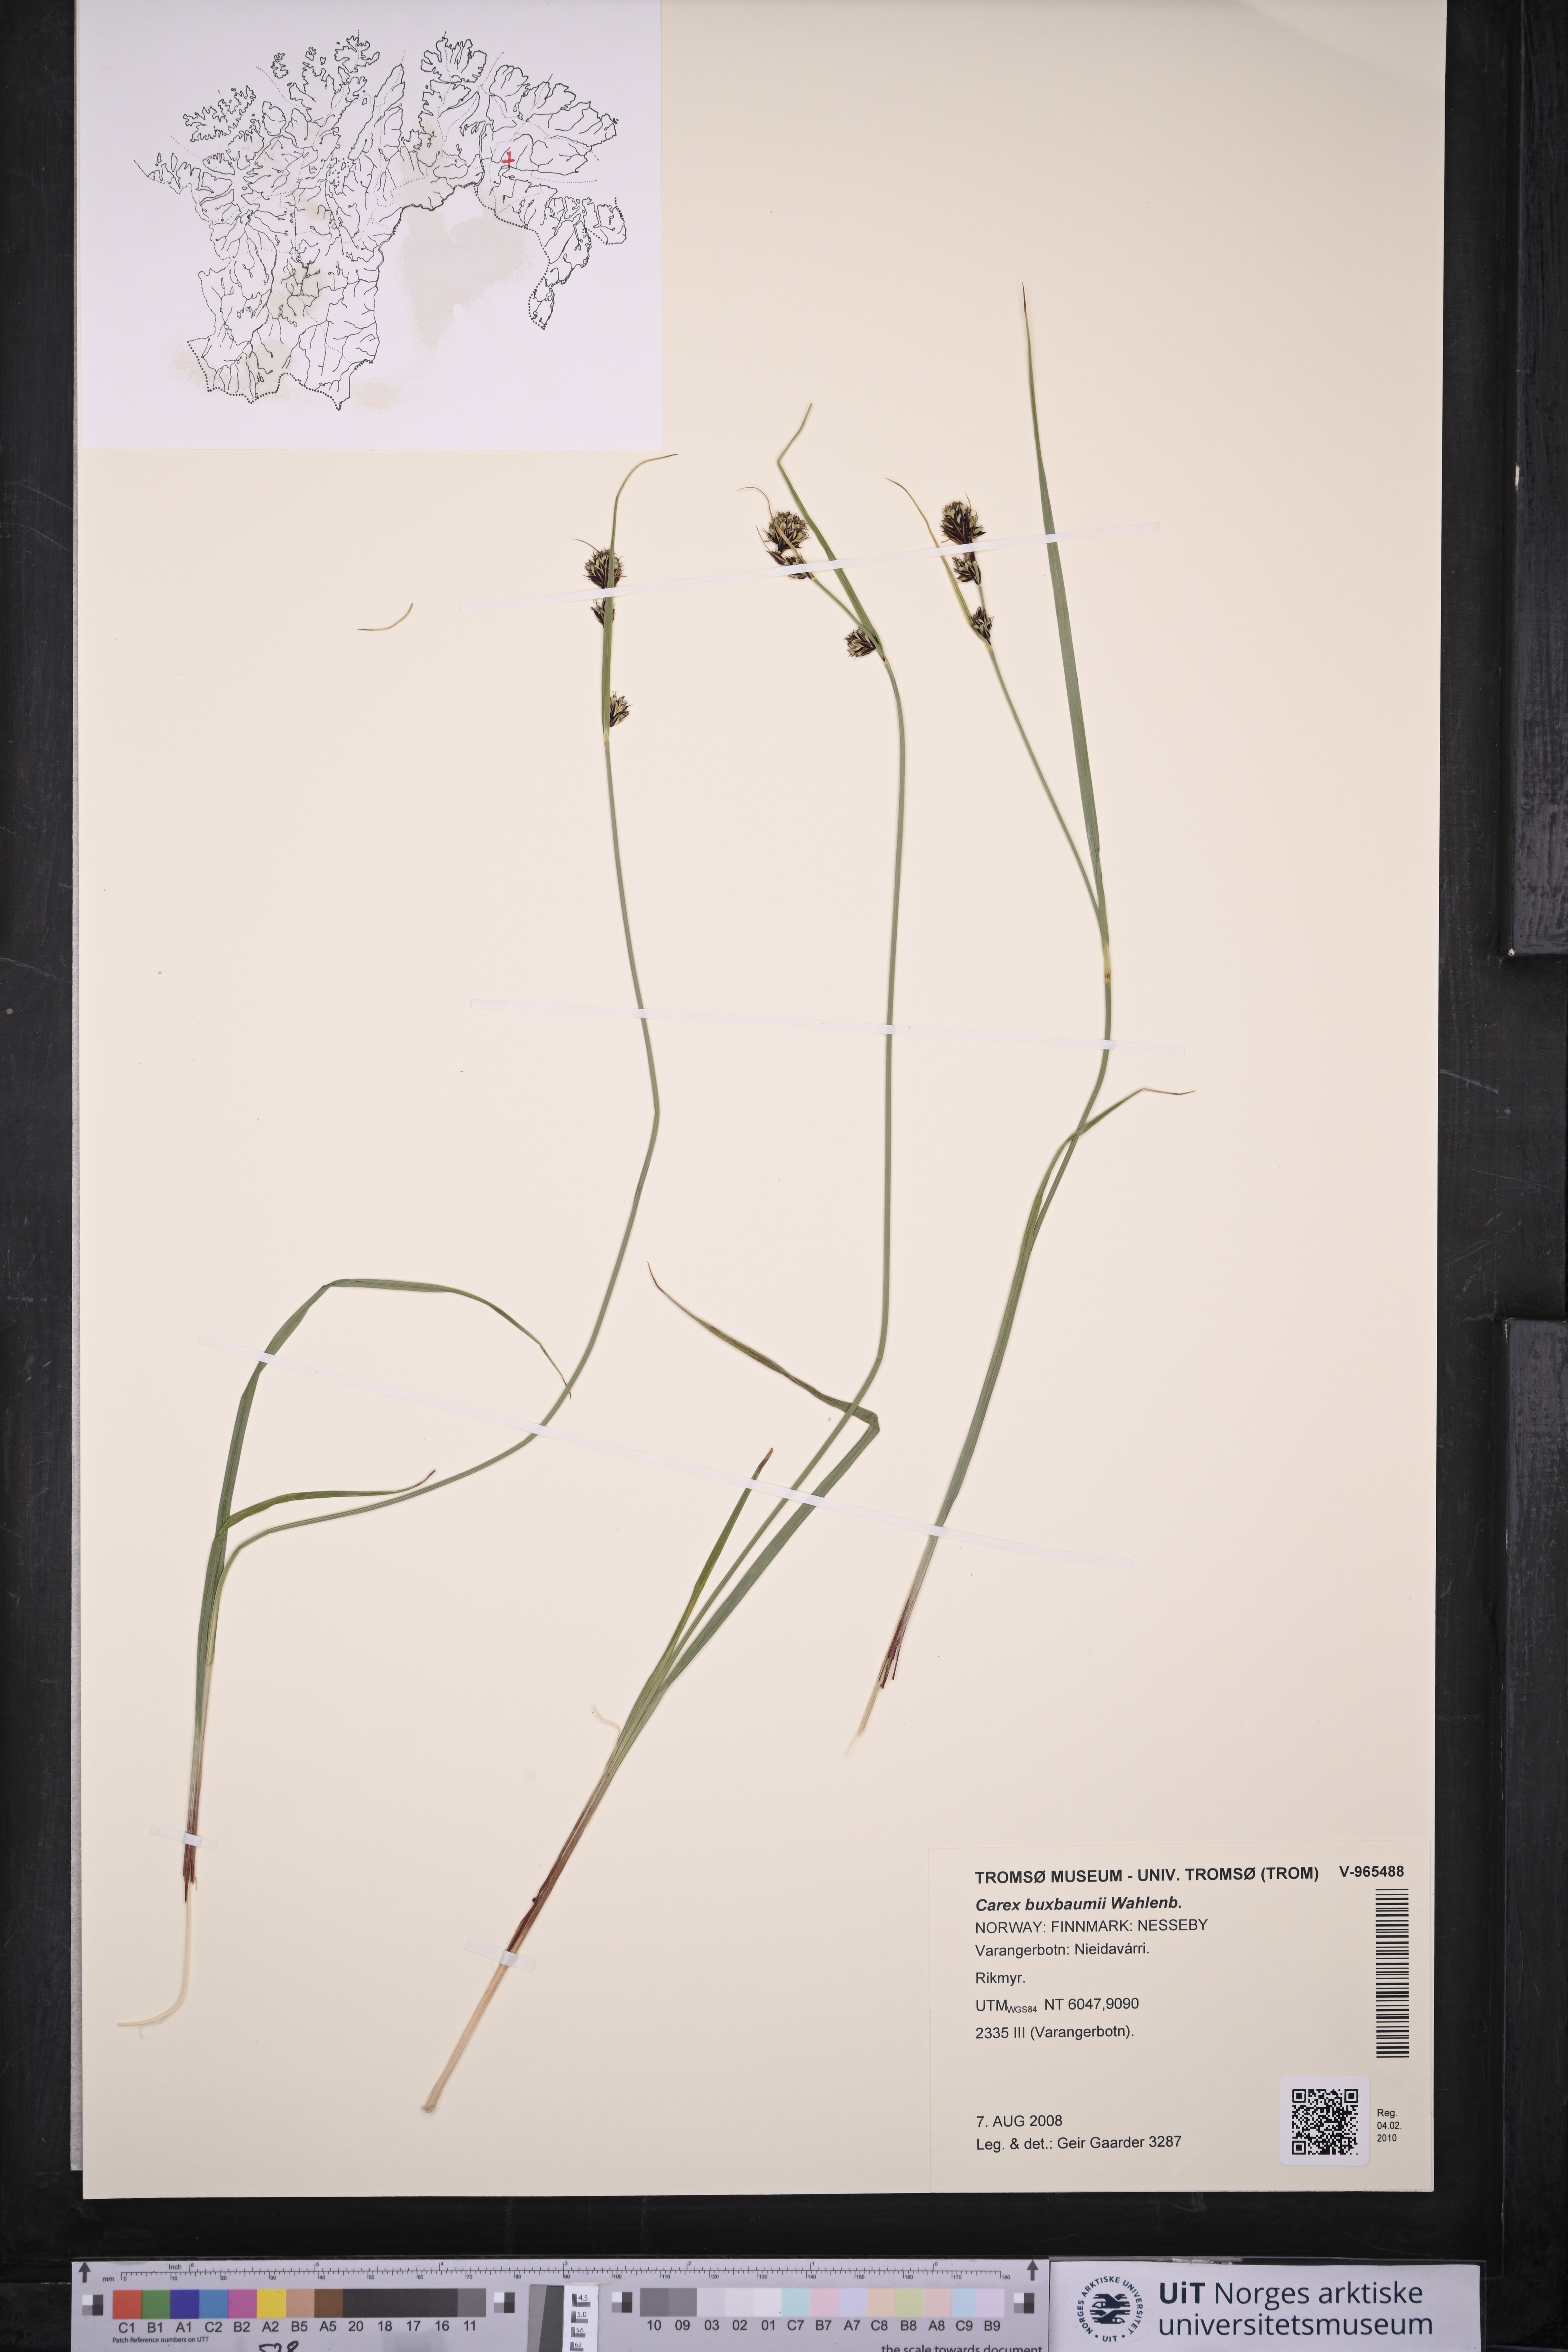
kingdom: Plantae
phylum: Tracheophyta
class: Liliopsida
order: Poales
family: Cyperaceae
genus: Carex
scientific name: Carex buxbaumii
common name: Club sedge
